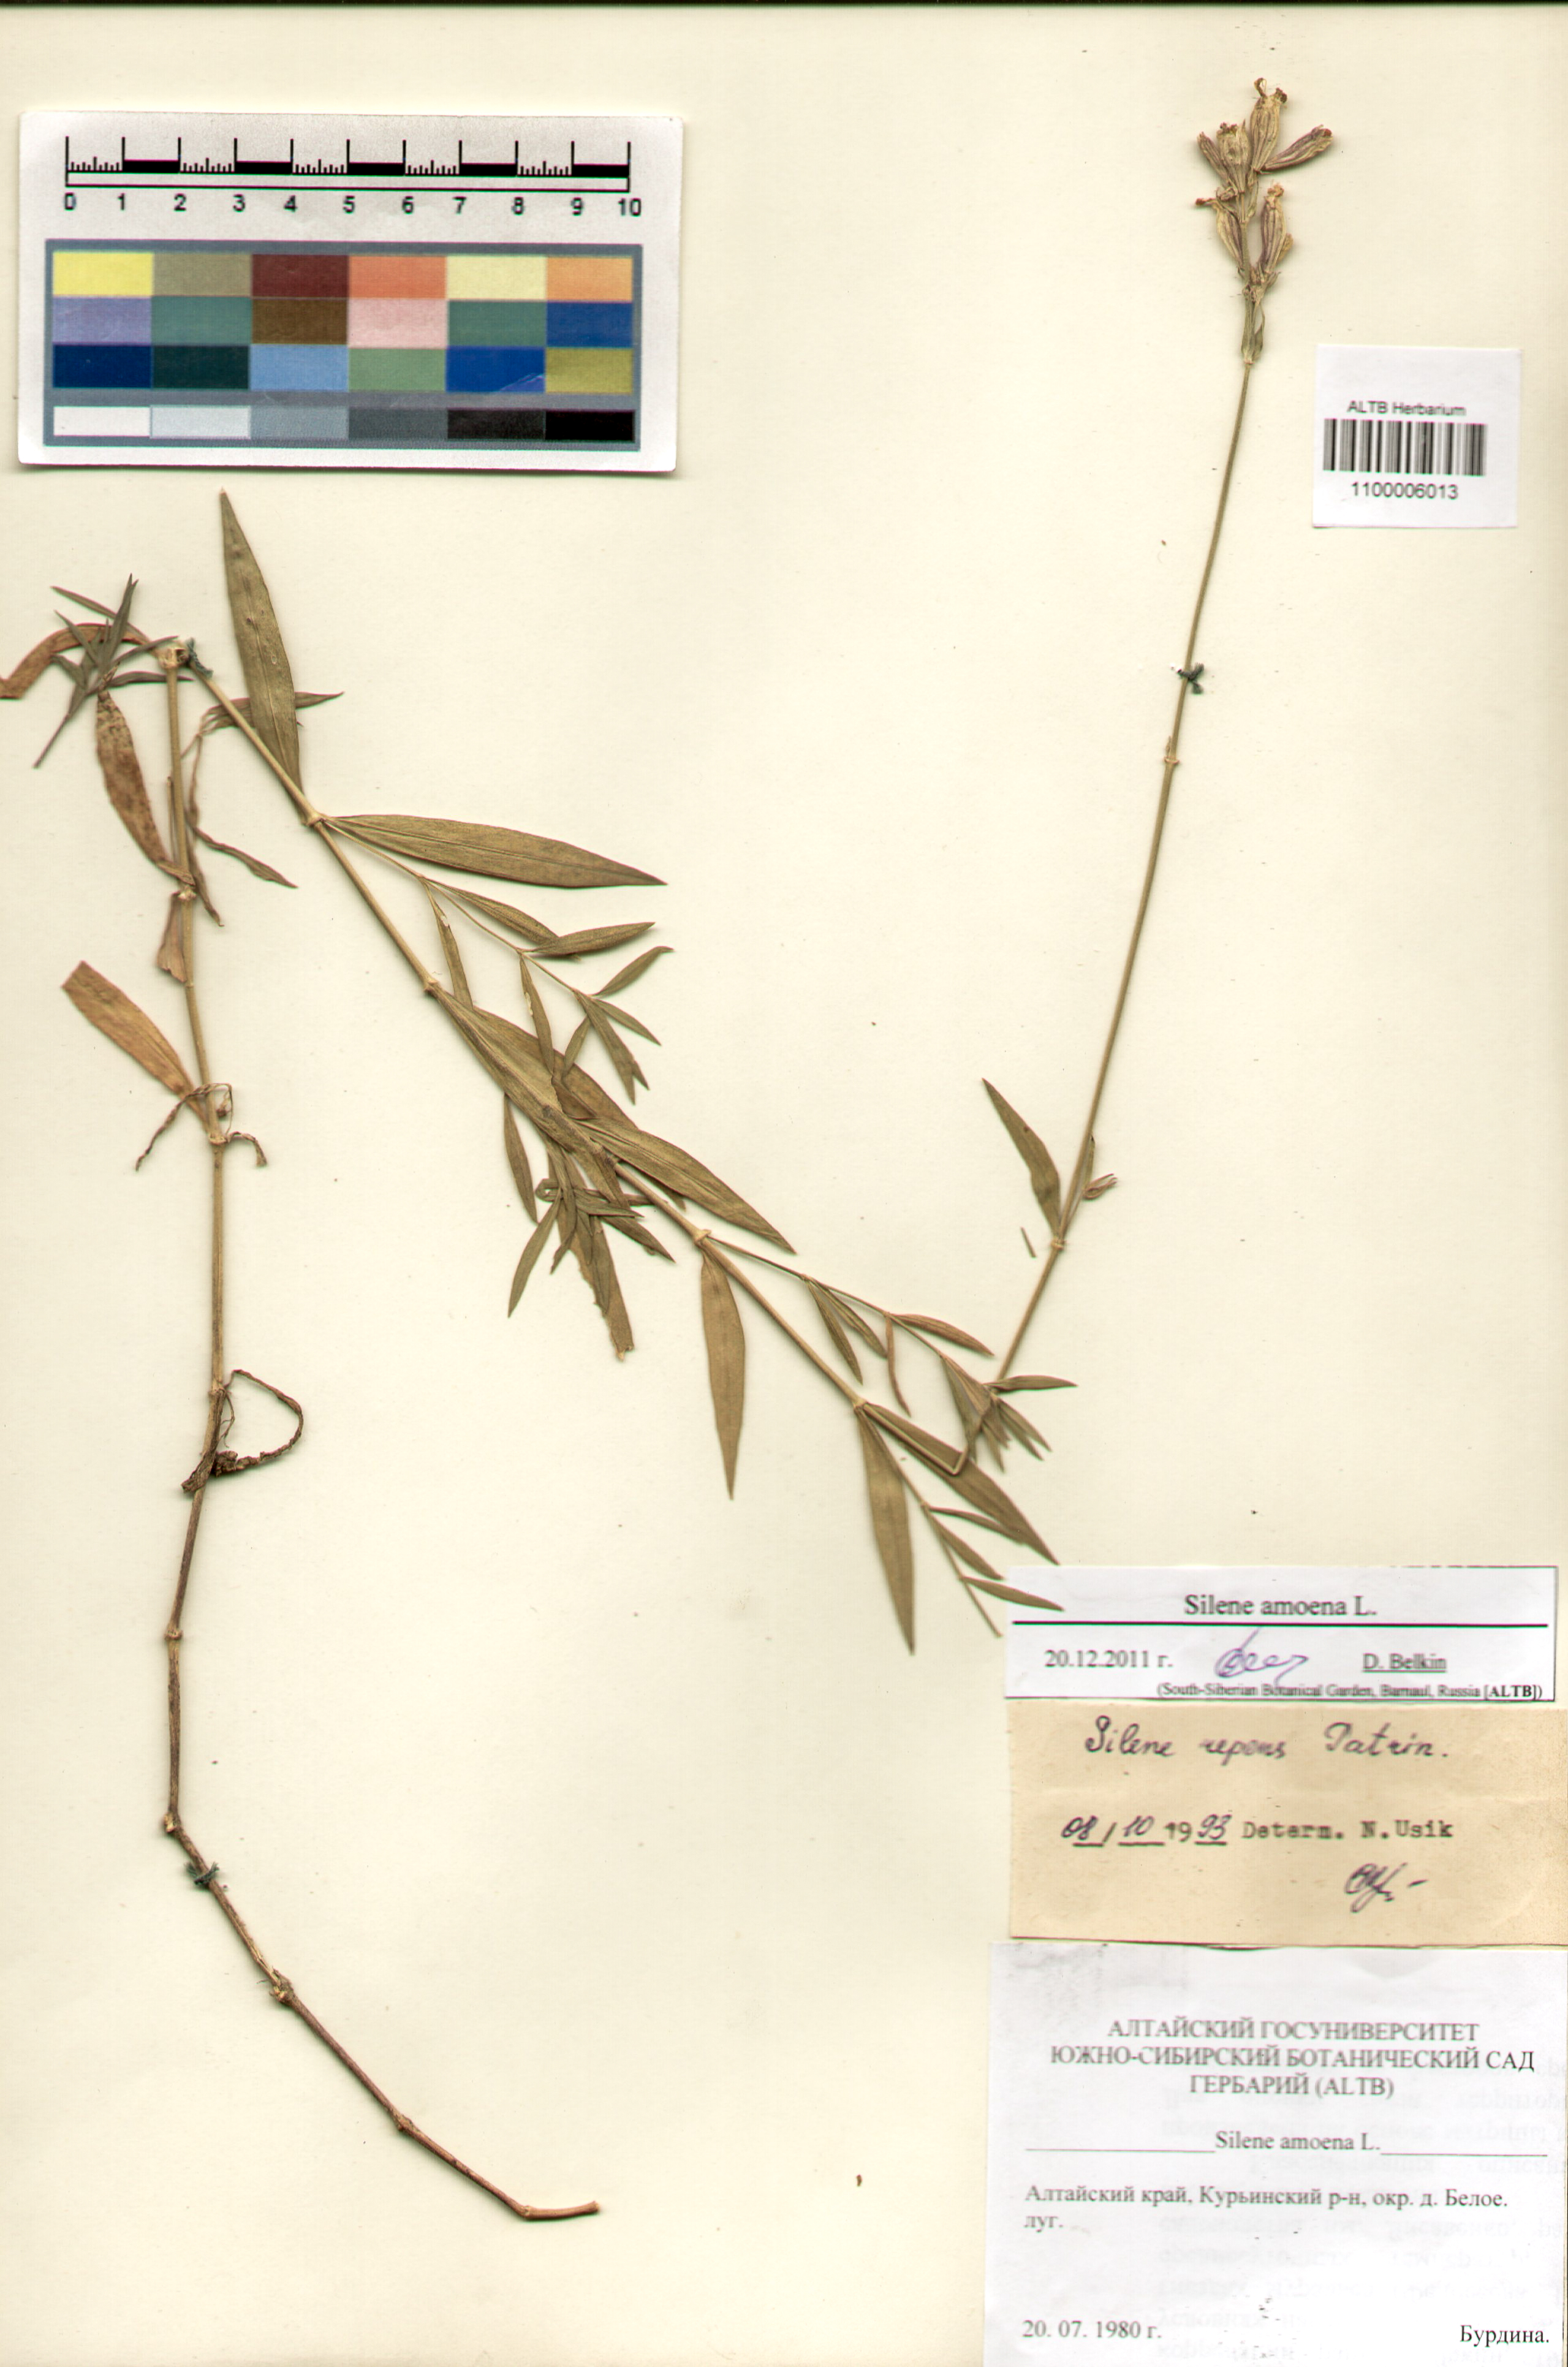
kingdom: Plantae
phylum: Tracheophyta
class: Magnoliopsida
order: Caryophyllales
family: Caryophyllaceae
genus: Silene
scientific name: Silene amoena
